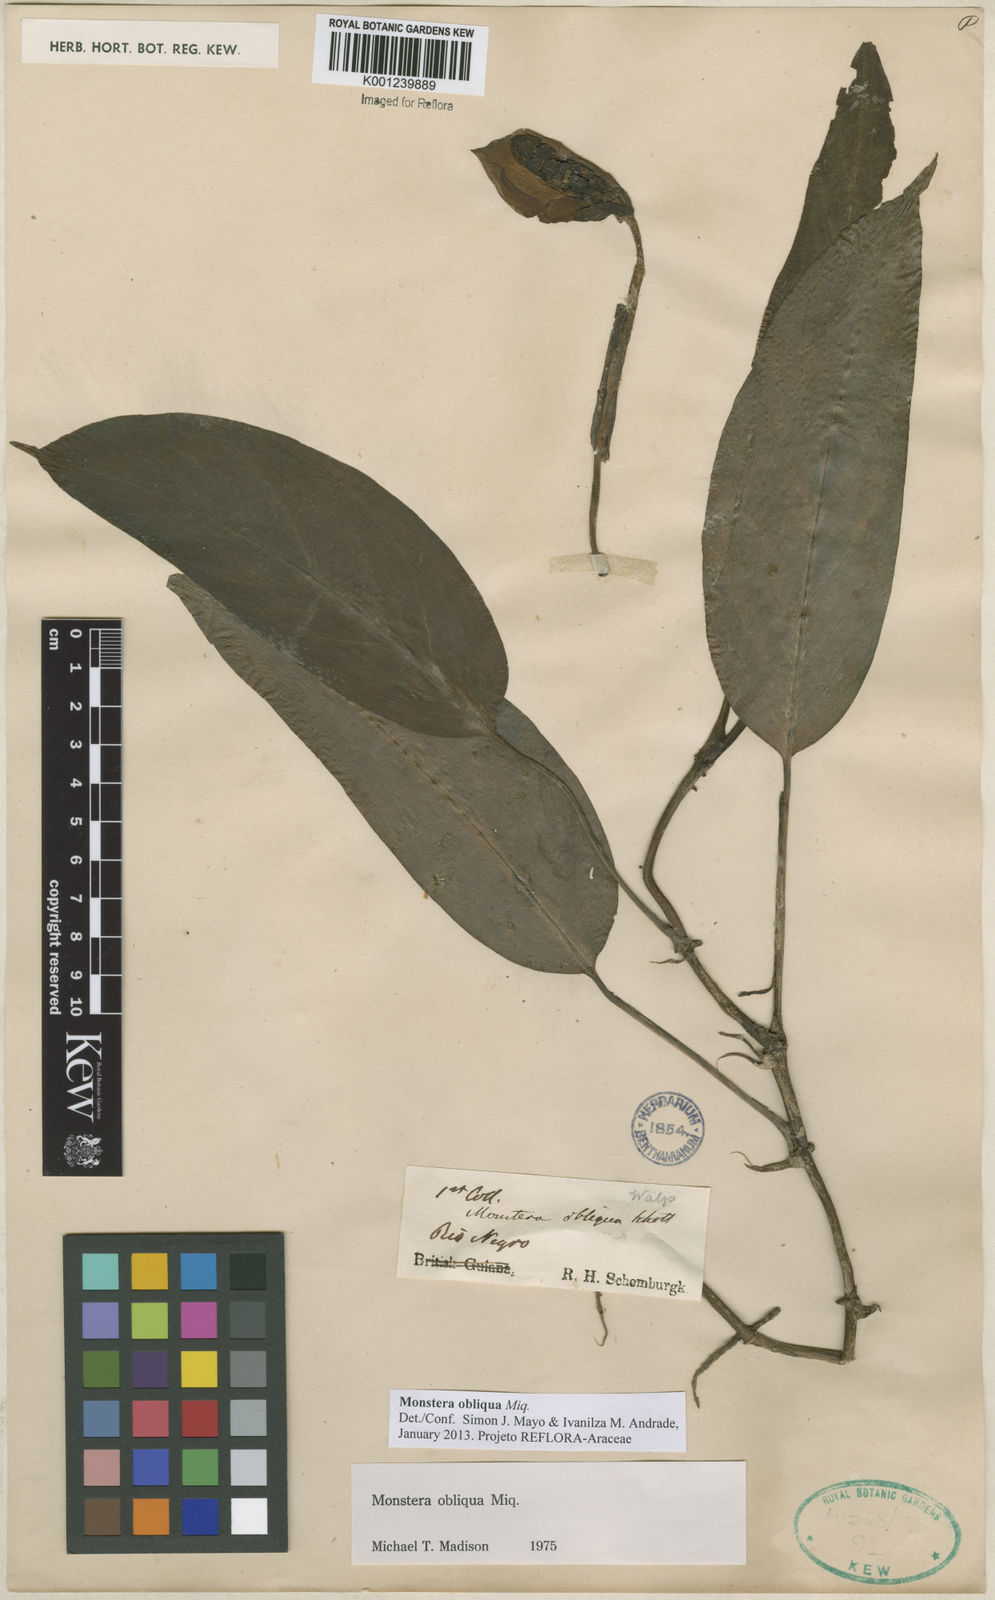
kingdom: Plantae
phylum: Tracheophyta
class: Liliopsida
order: Alismatales
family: Araceae
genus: Monstera
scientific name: Monstera obliqua
